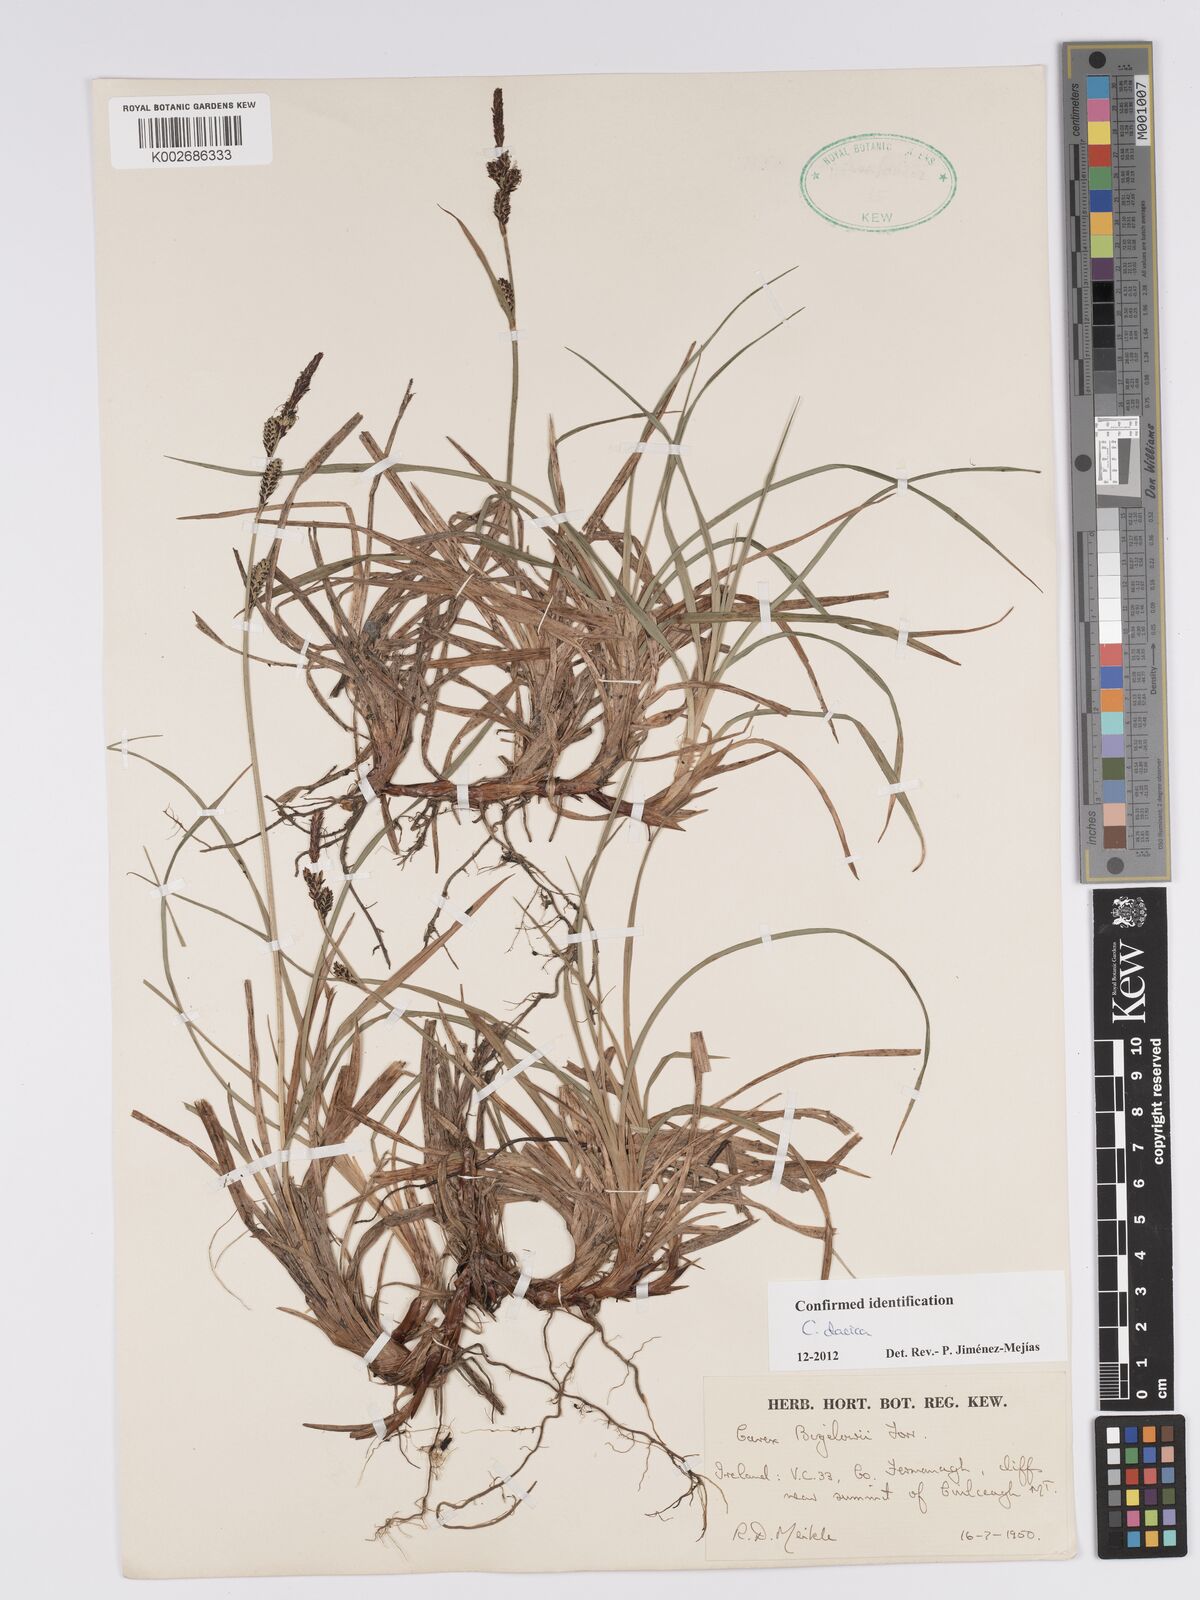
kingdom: Plantae
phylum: Tracheophyta
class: Liliopsida
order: Poales
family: Cyperaceae
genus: Carex
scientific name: Carex bigelowii
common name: Stiff sedge
